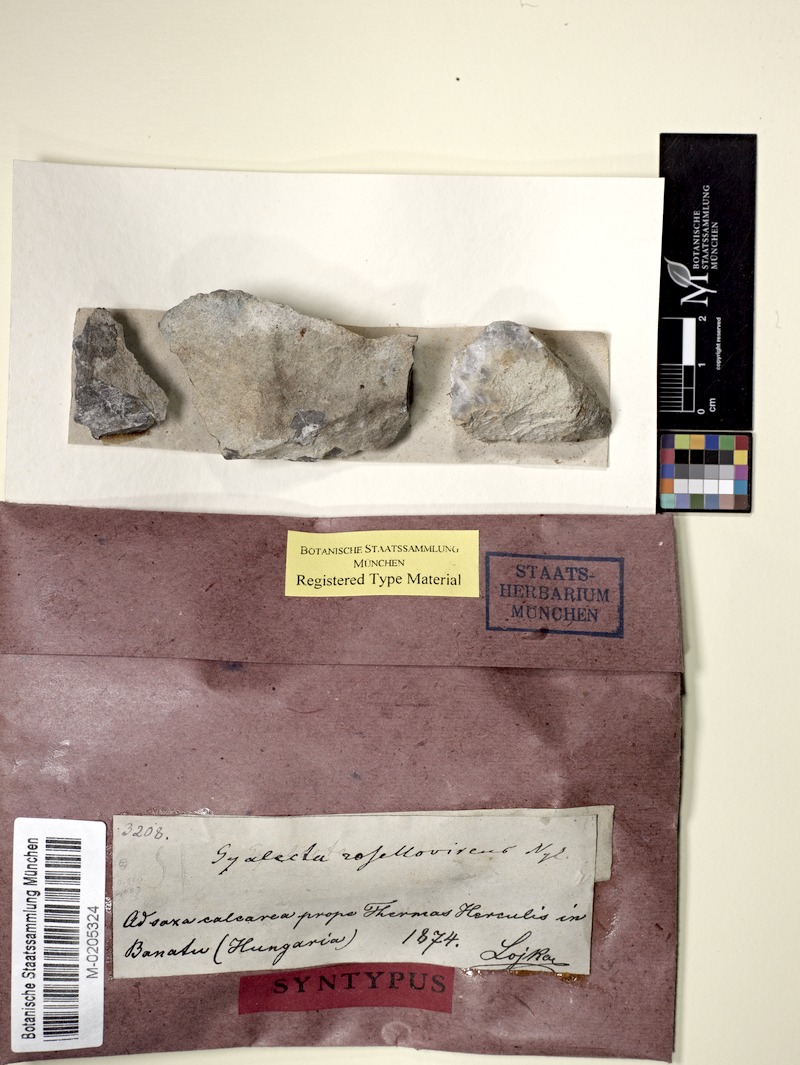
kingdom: Fungi
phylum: Ascomycota
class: Lecanoromycetes
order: Gyalectales
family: Gyalectaceae
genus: Gyalecta
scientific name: Gyalecta subclausa
